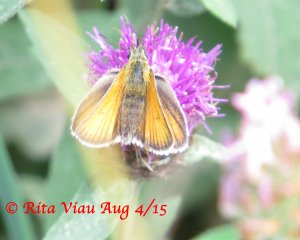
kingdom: Animalia
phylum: Arthropoda
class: Insecta
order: Lepidoptera
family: Hesperiidae
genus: Thymelicus
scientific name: Thymelicus lineola
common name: European Skipper
